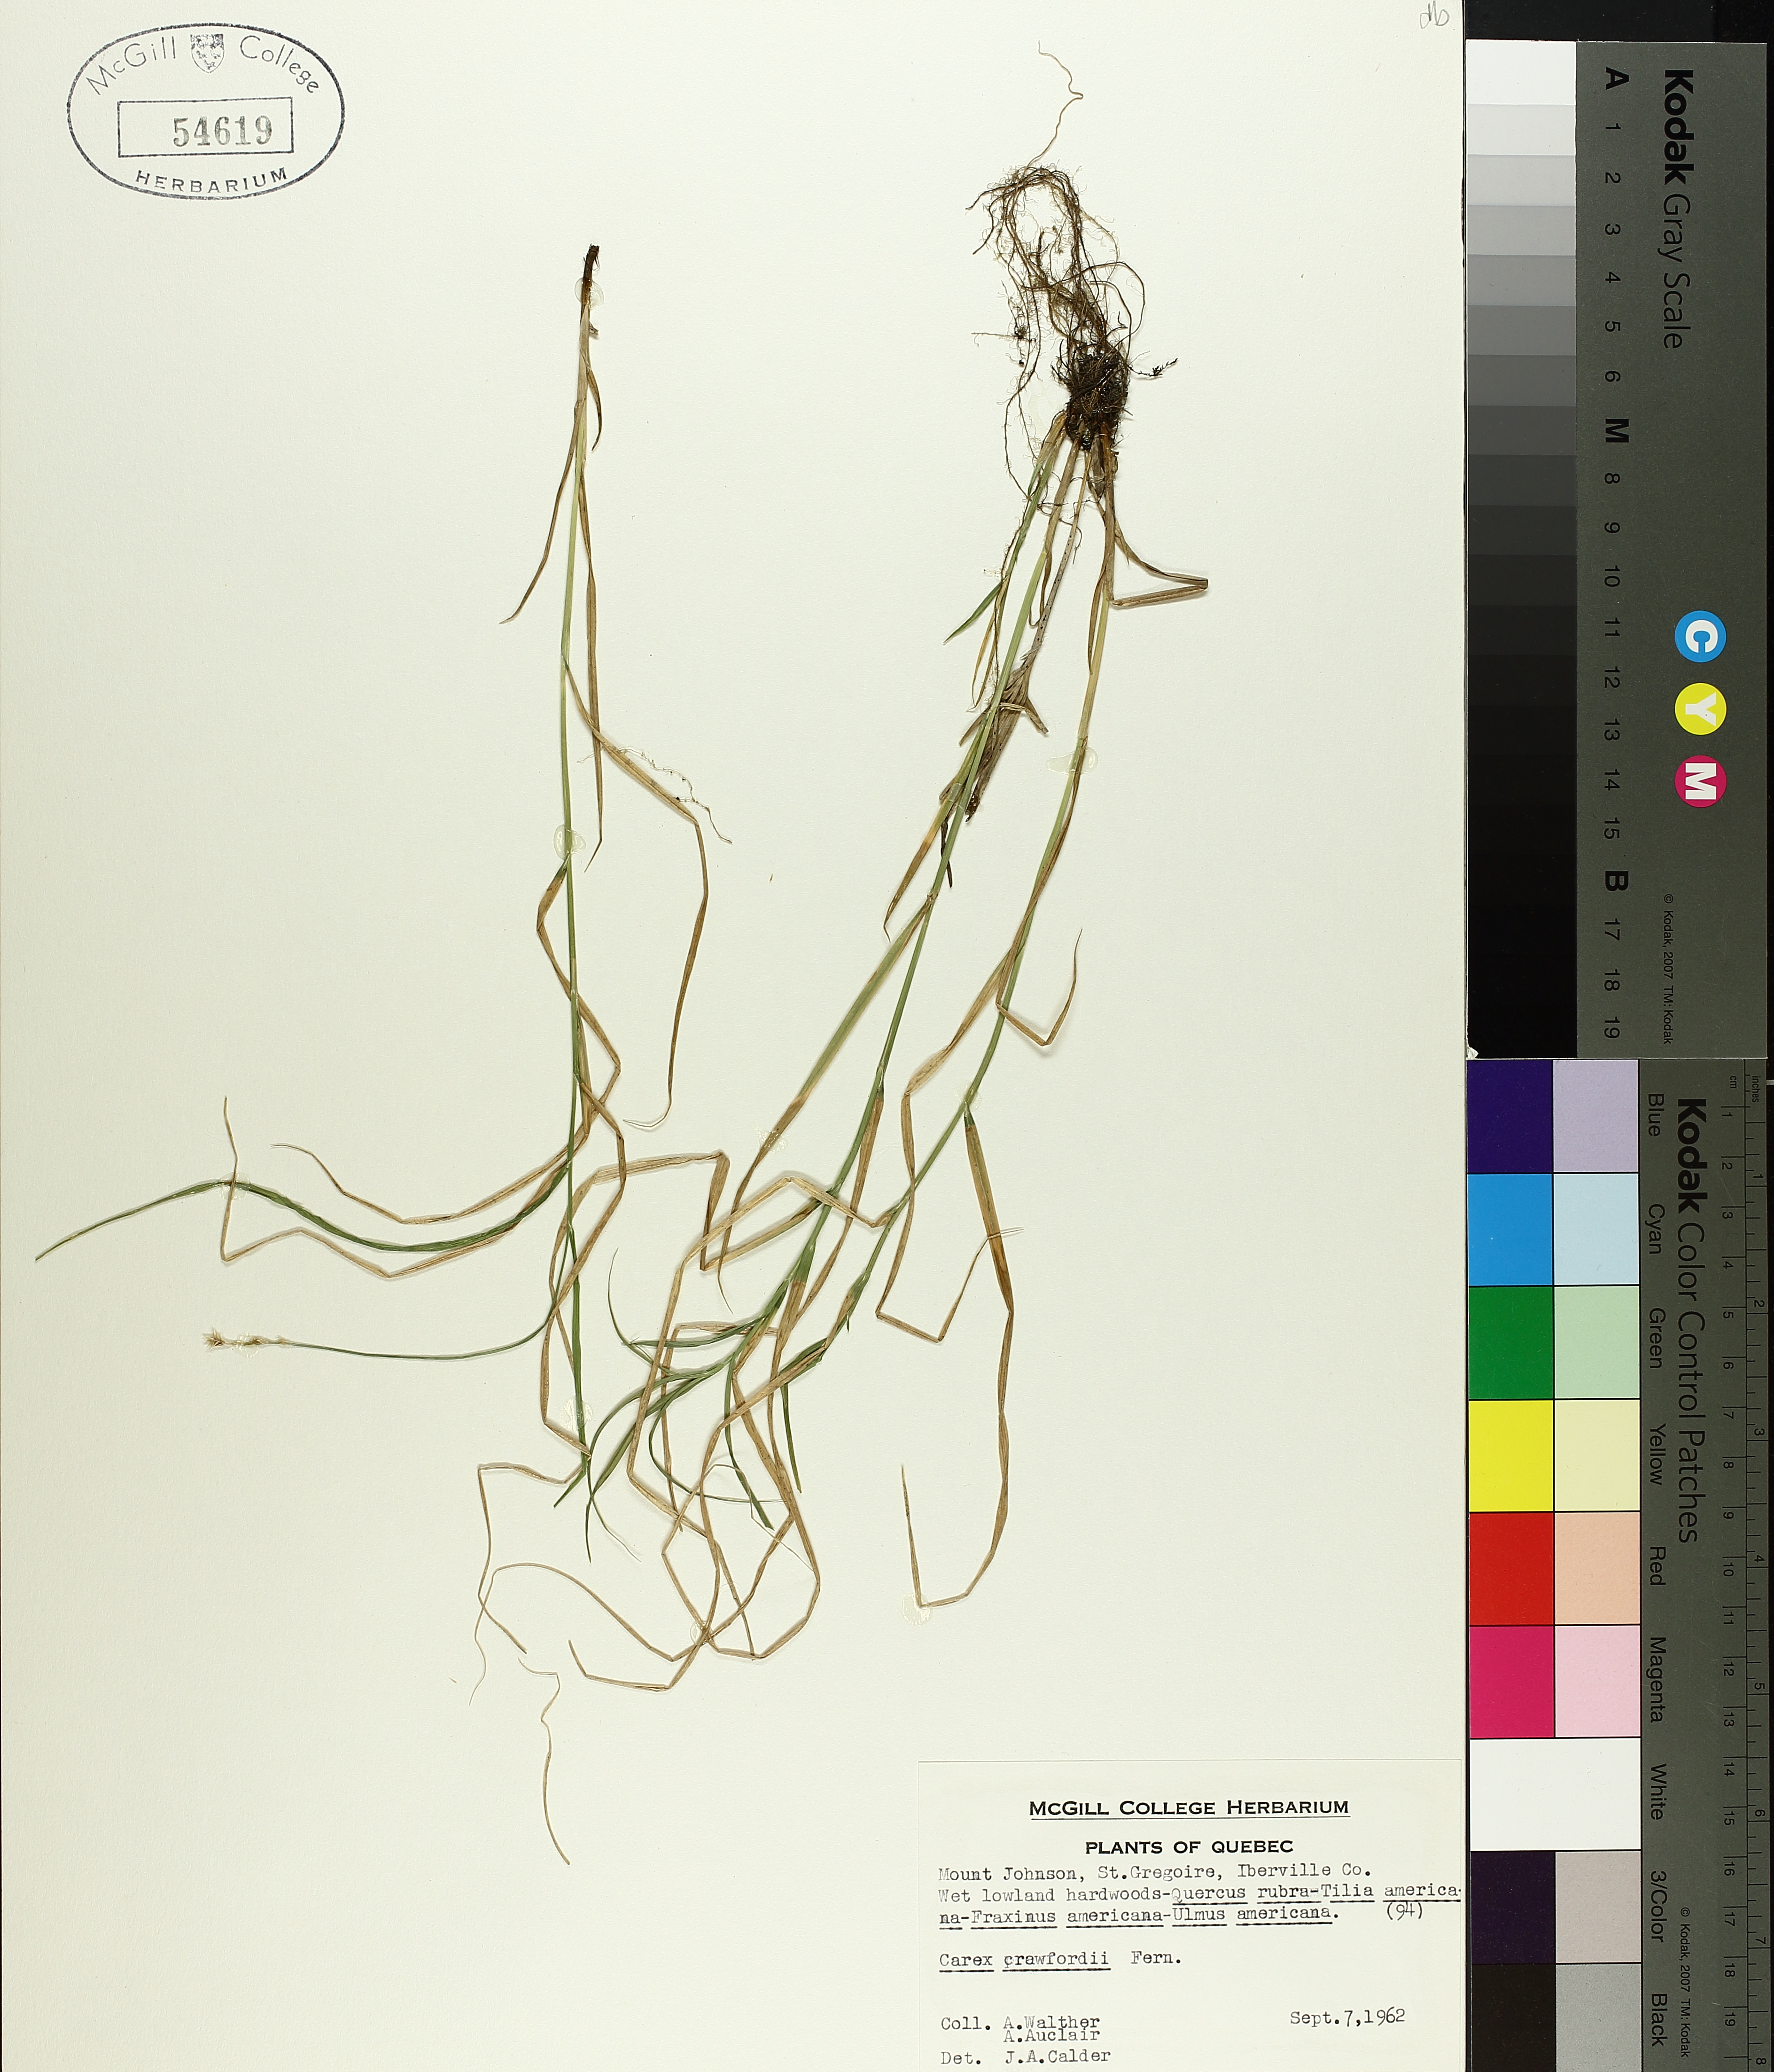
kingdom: Plantae
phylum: Tracheophyta
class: Liliopsida
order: Poales
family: Cyperaceae
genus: Carex
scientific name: Carex crawfordii
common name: Crawford's sedge
